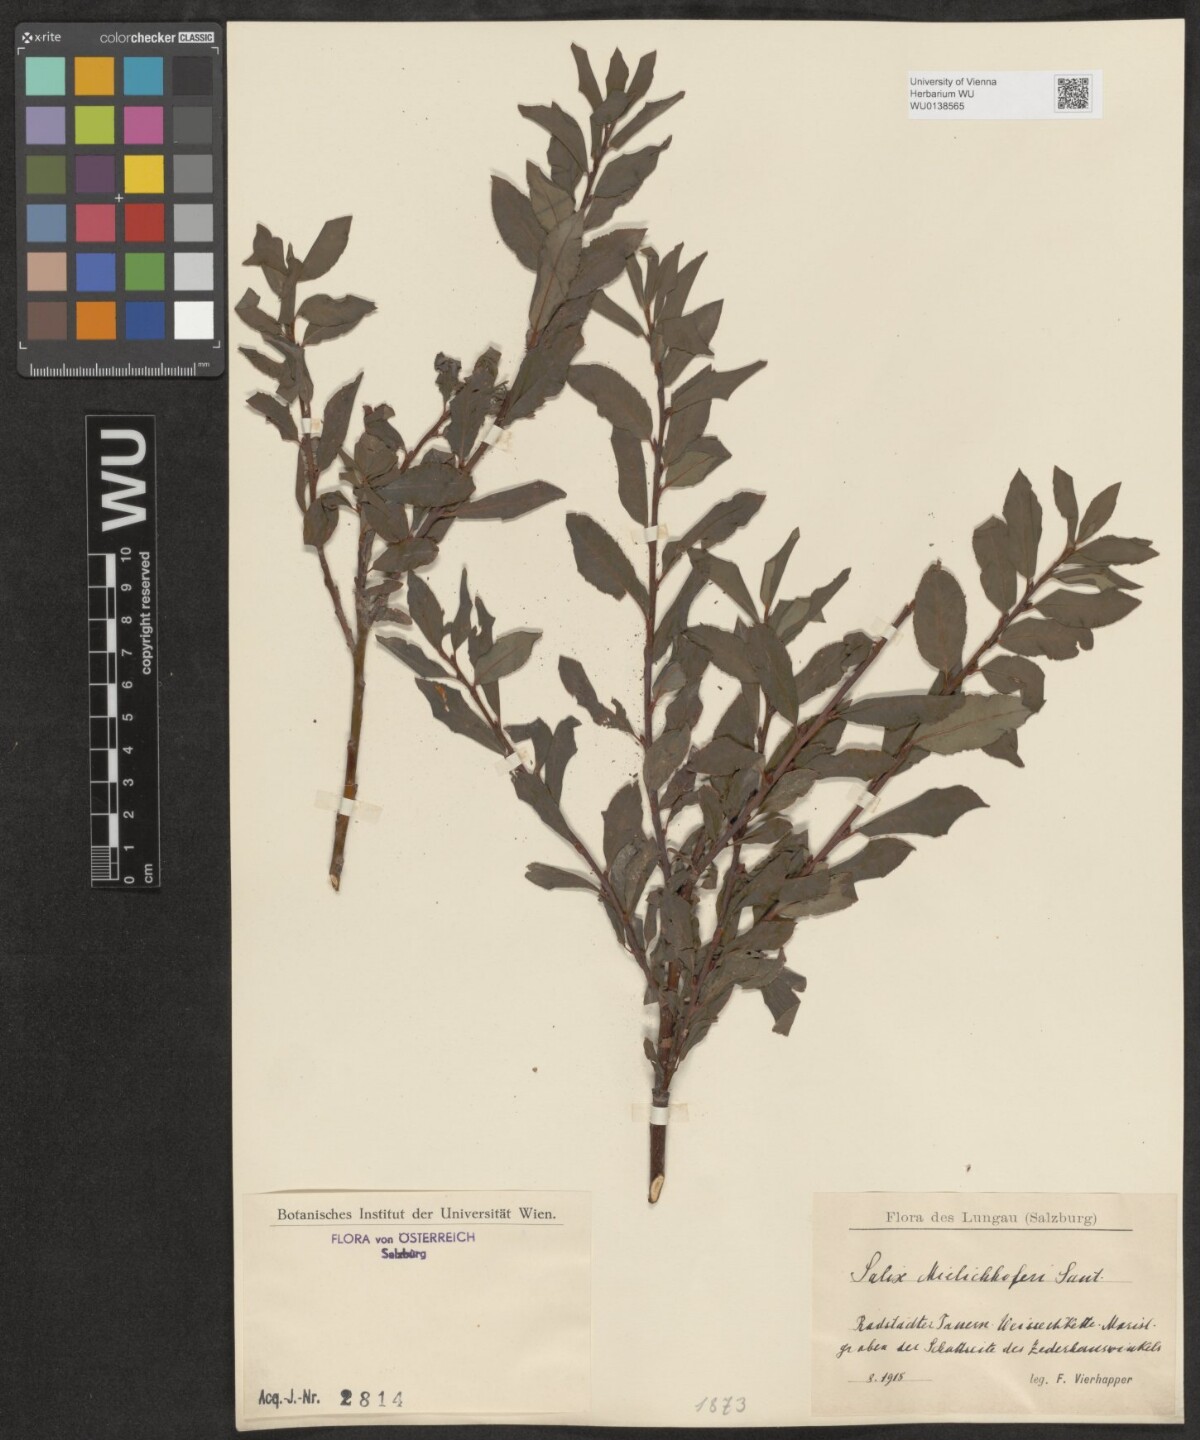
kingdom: Plantae
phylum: Tracheophyta
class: Magnoliopsida
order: Malpighiales
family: Salicaceae
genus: Salix
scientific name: Salix mielichhoferi
